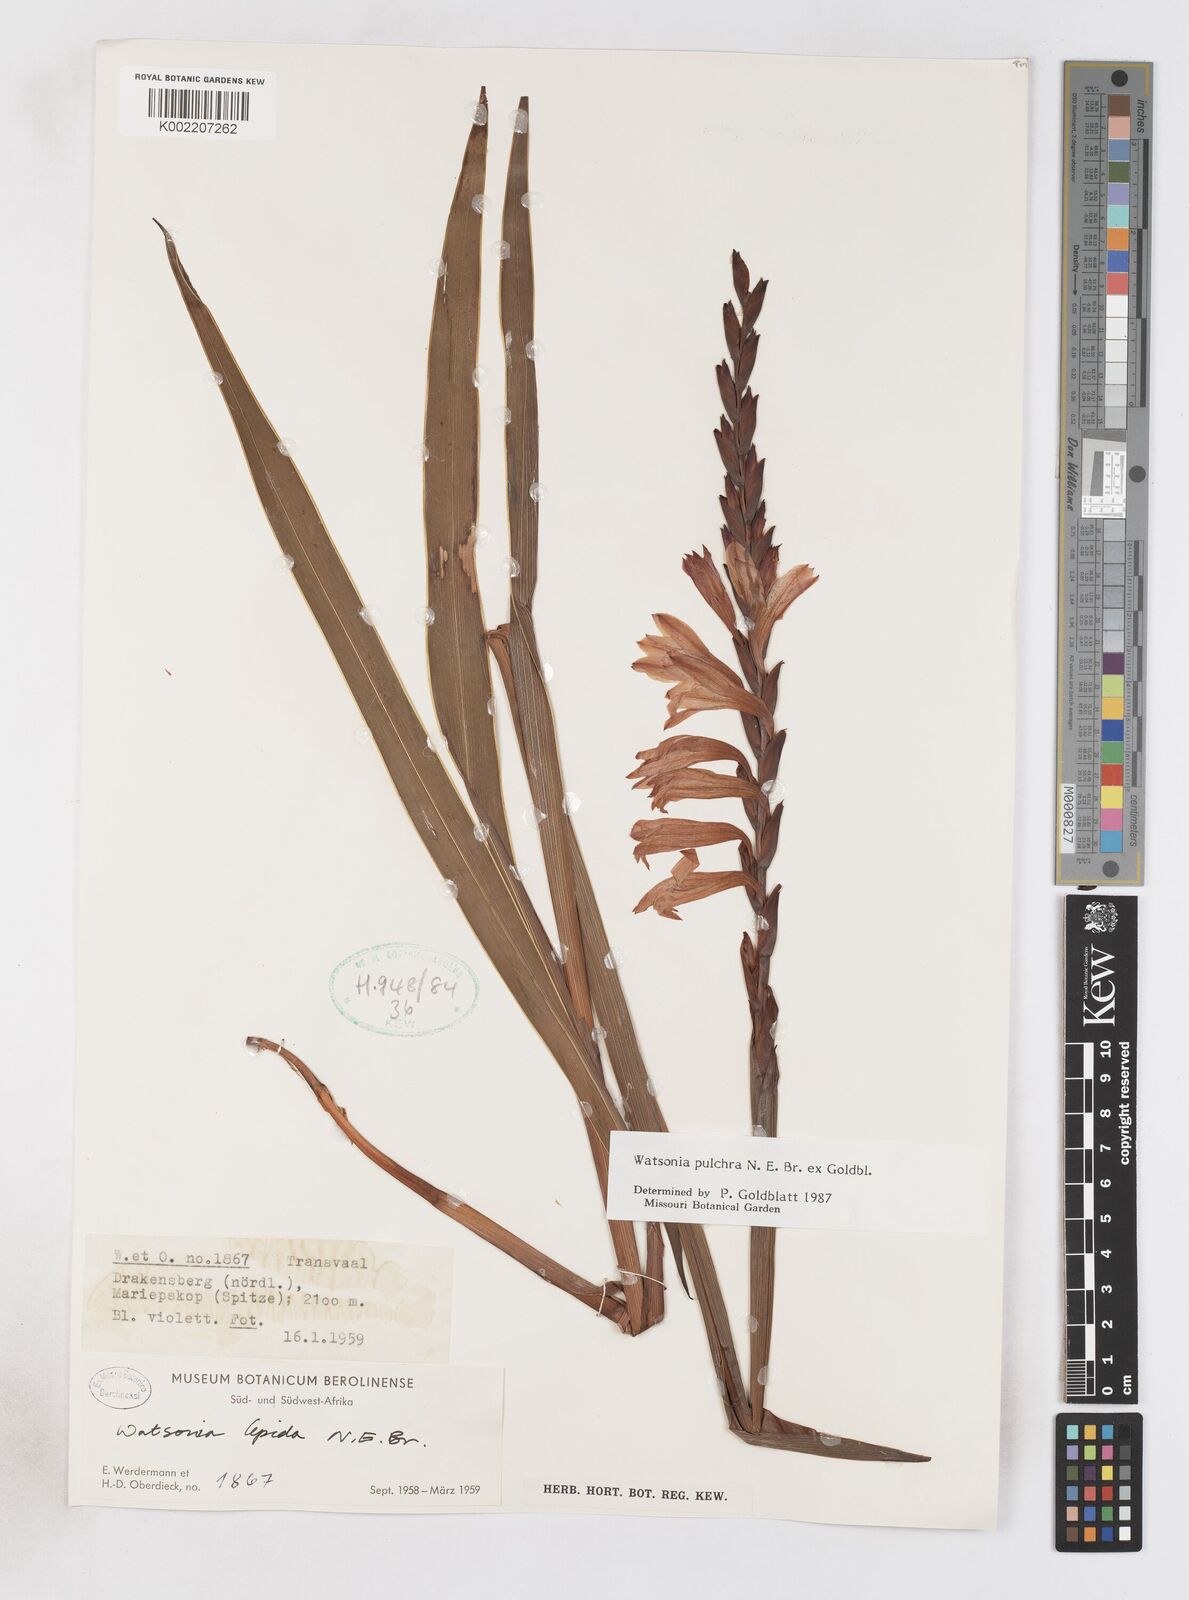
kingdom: Plantae
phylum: Tracheophyta
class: Liliopsida
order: Asparagales
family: Iridaceae
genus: Watsonia
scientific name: Watsonia pulchra
